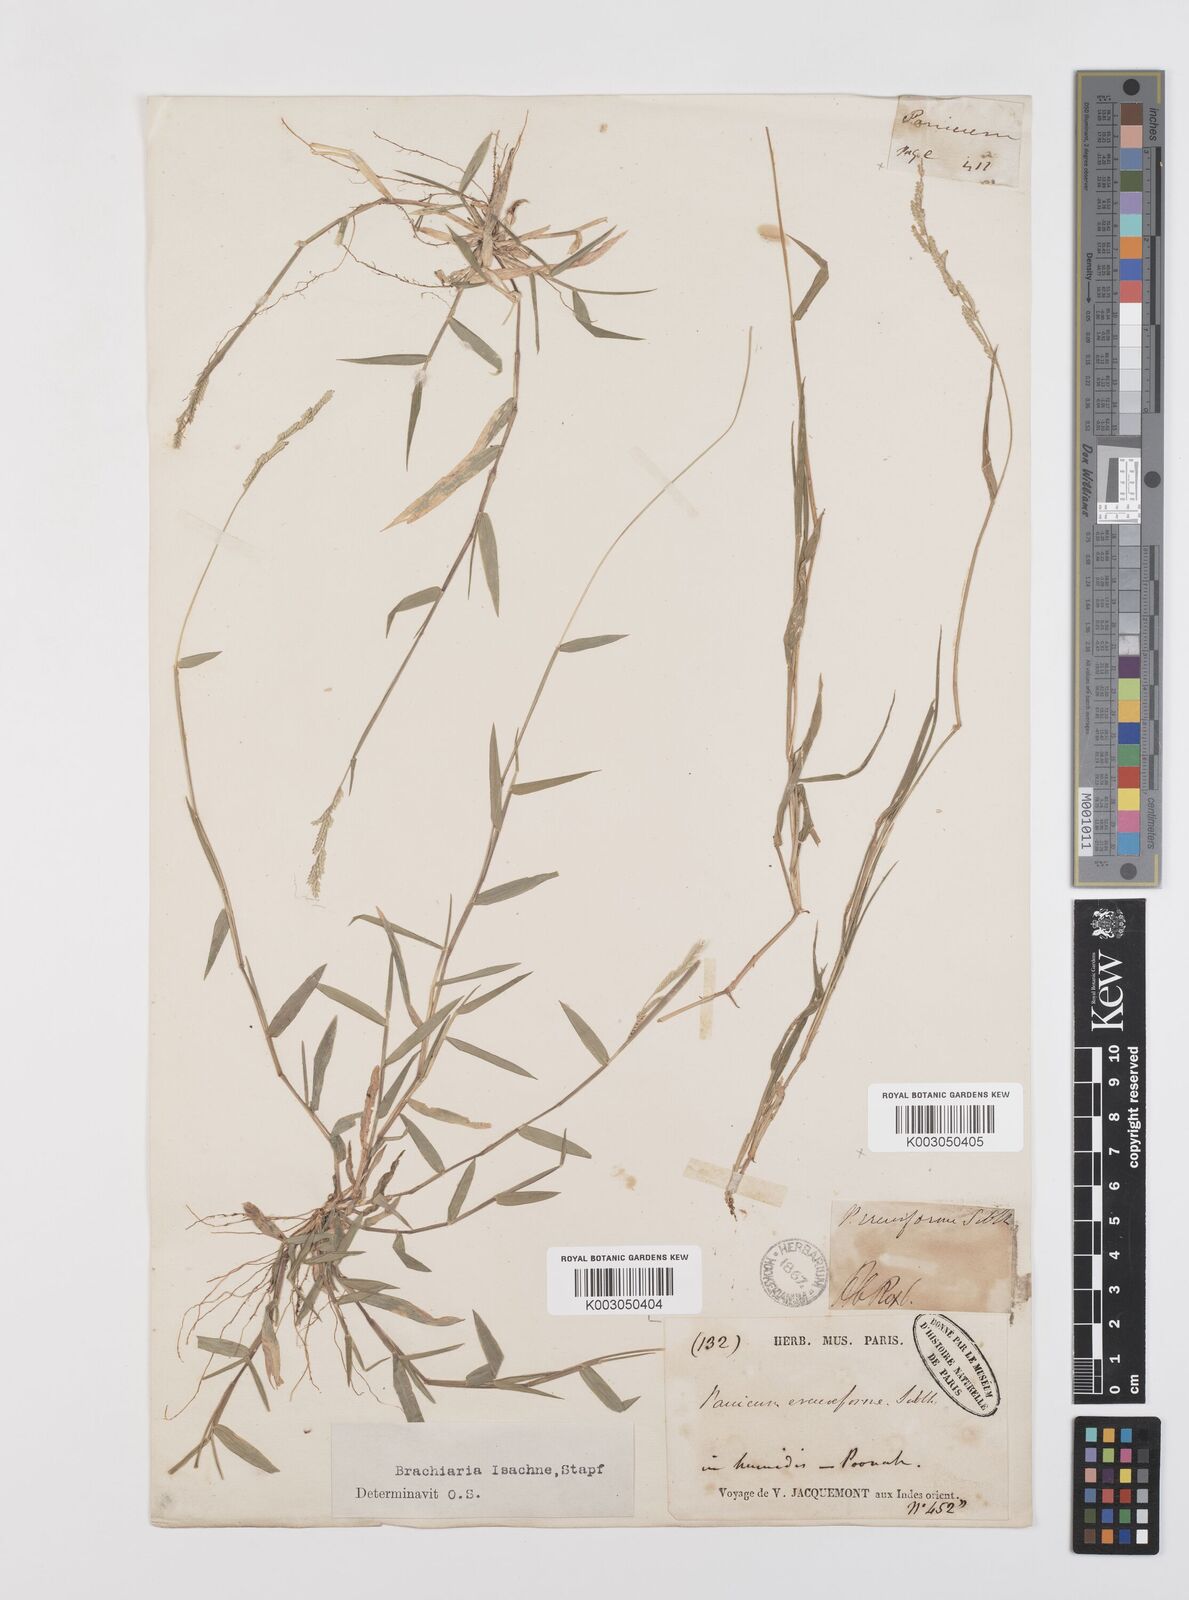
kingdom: Plantae
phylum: Tracheophyta
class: Liliopsida
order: Poales
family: Poaceae
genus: Moorochloa
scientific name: Moorochloa eruciformis
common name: Sweet signalgrass
